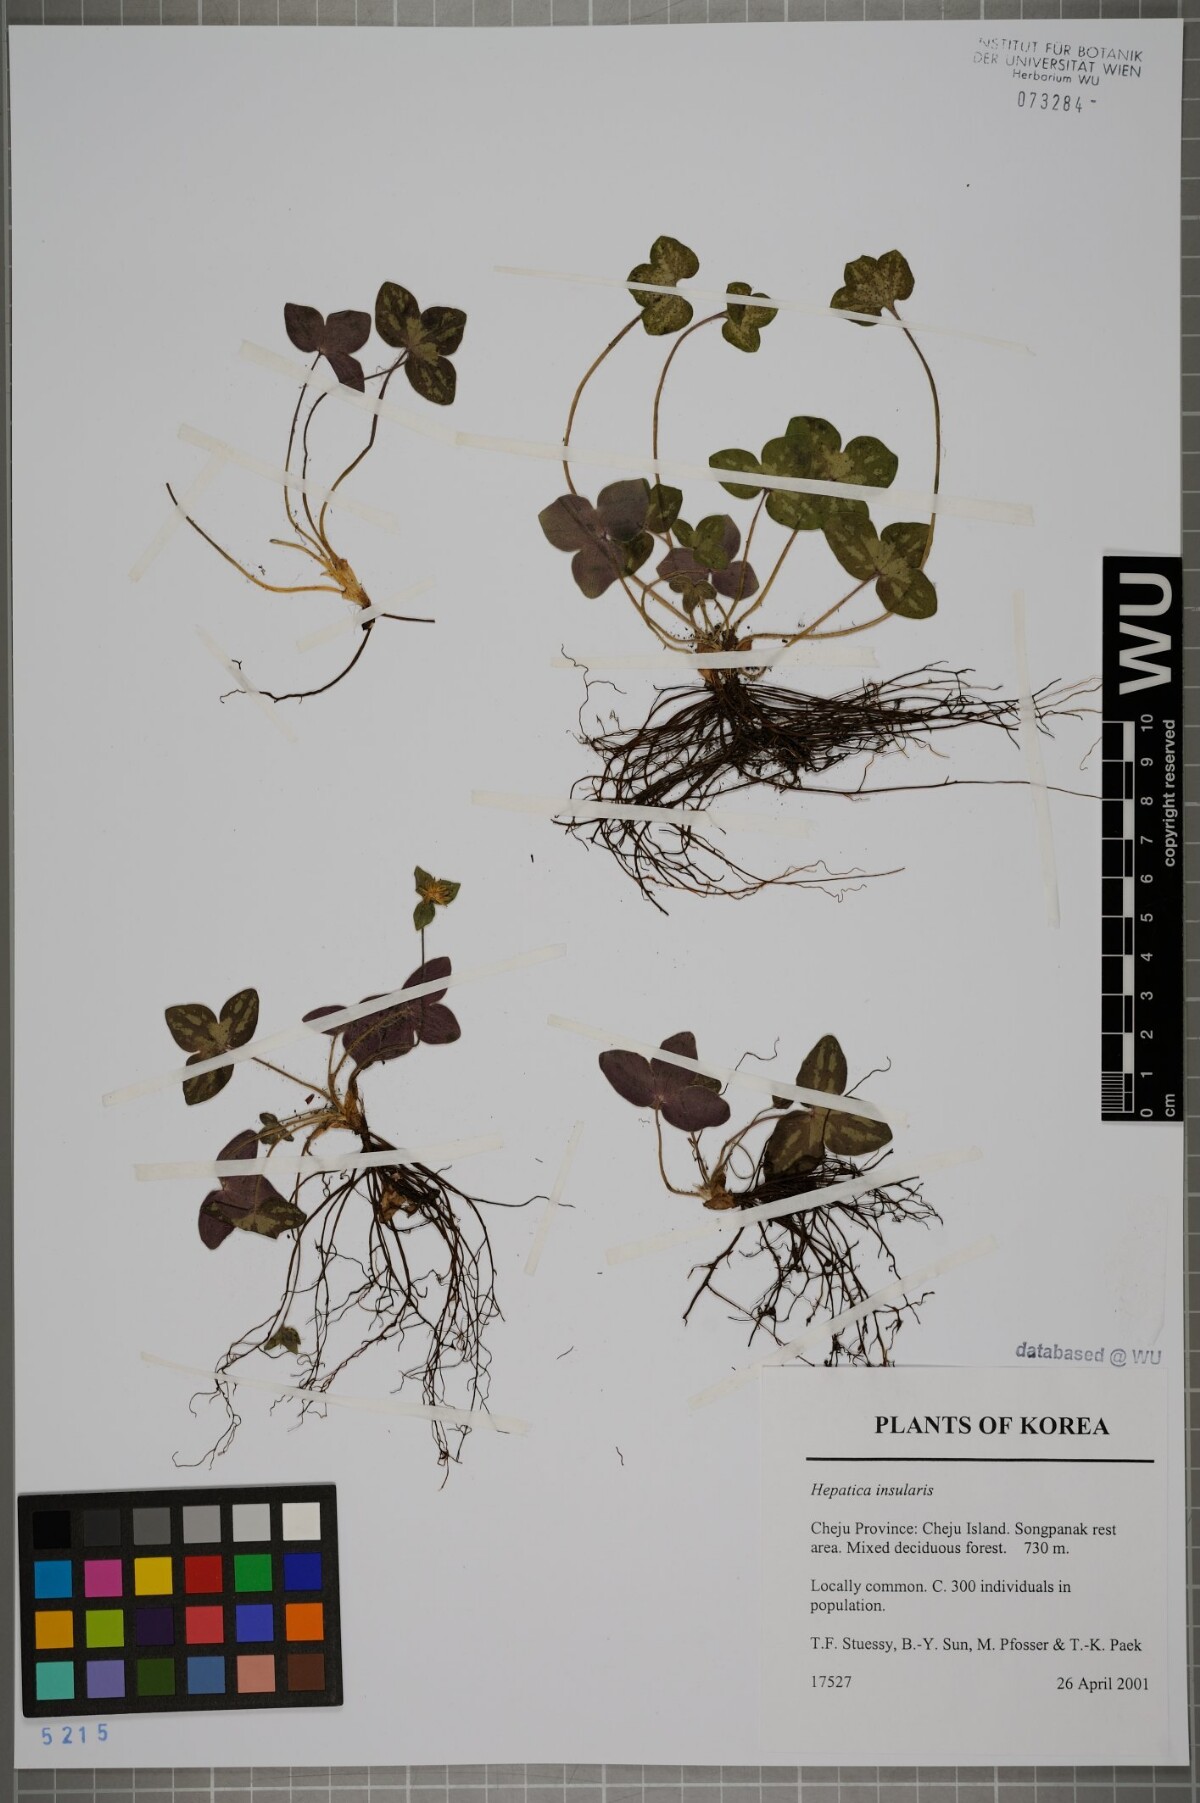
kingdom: Plantae
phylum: Tracheophyta
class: Magnoliopsida
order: Ranunculales
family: Ranunculaceae
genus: Hepatica
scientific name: Hepatica insularis
